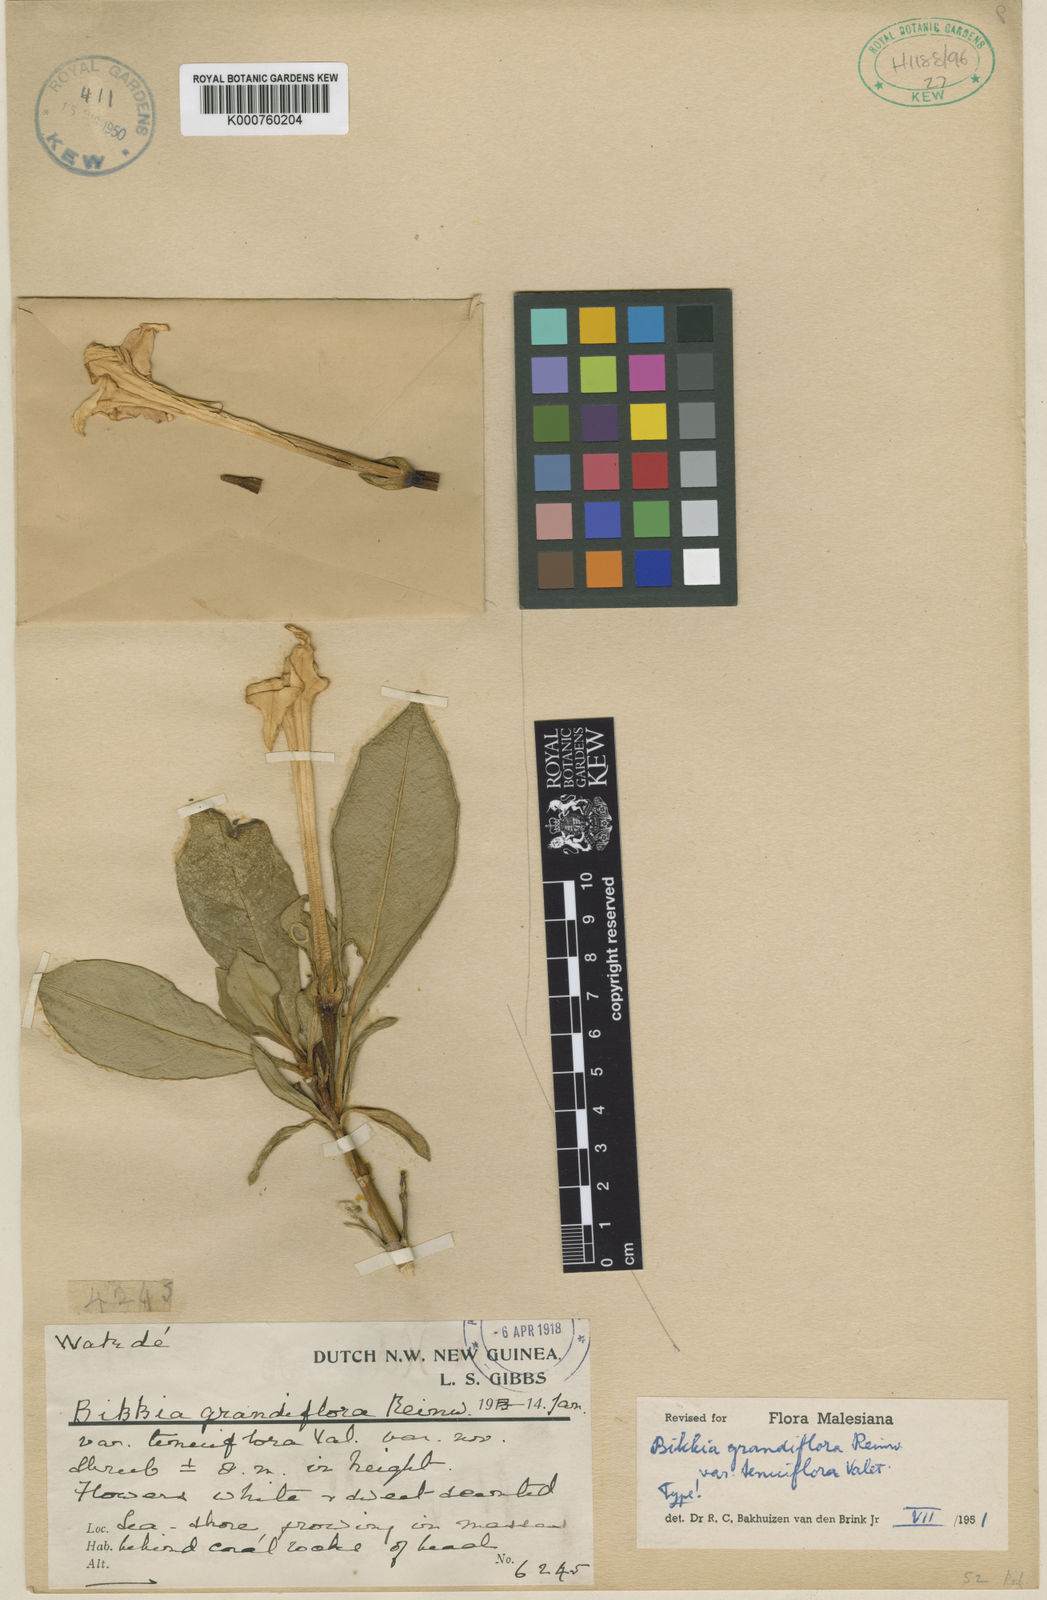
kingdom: Plantae
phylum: Tracheophyta
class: Magnoliopsida
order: Gentianales
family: Rubiaceae
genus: Bikkia
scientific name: Bikkia
